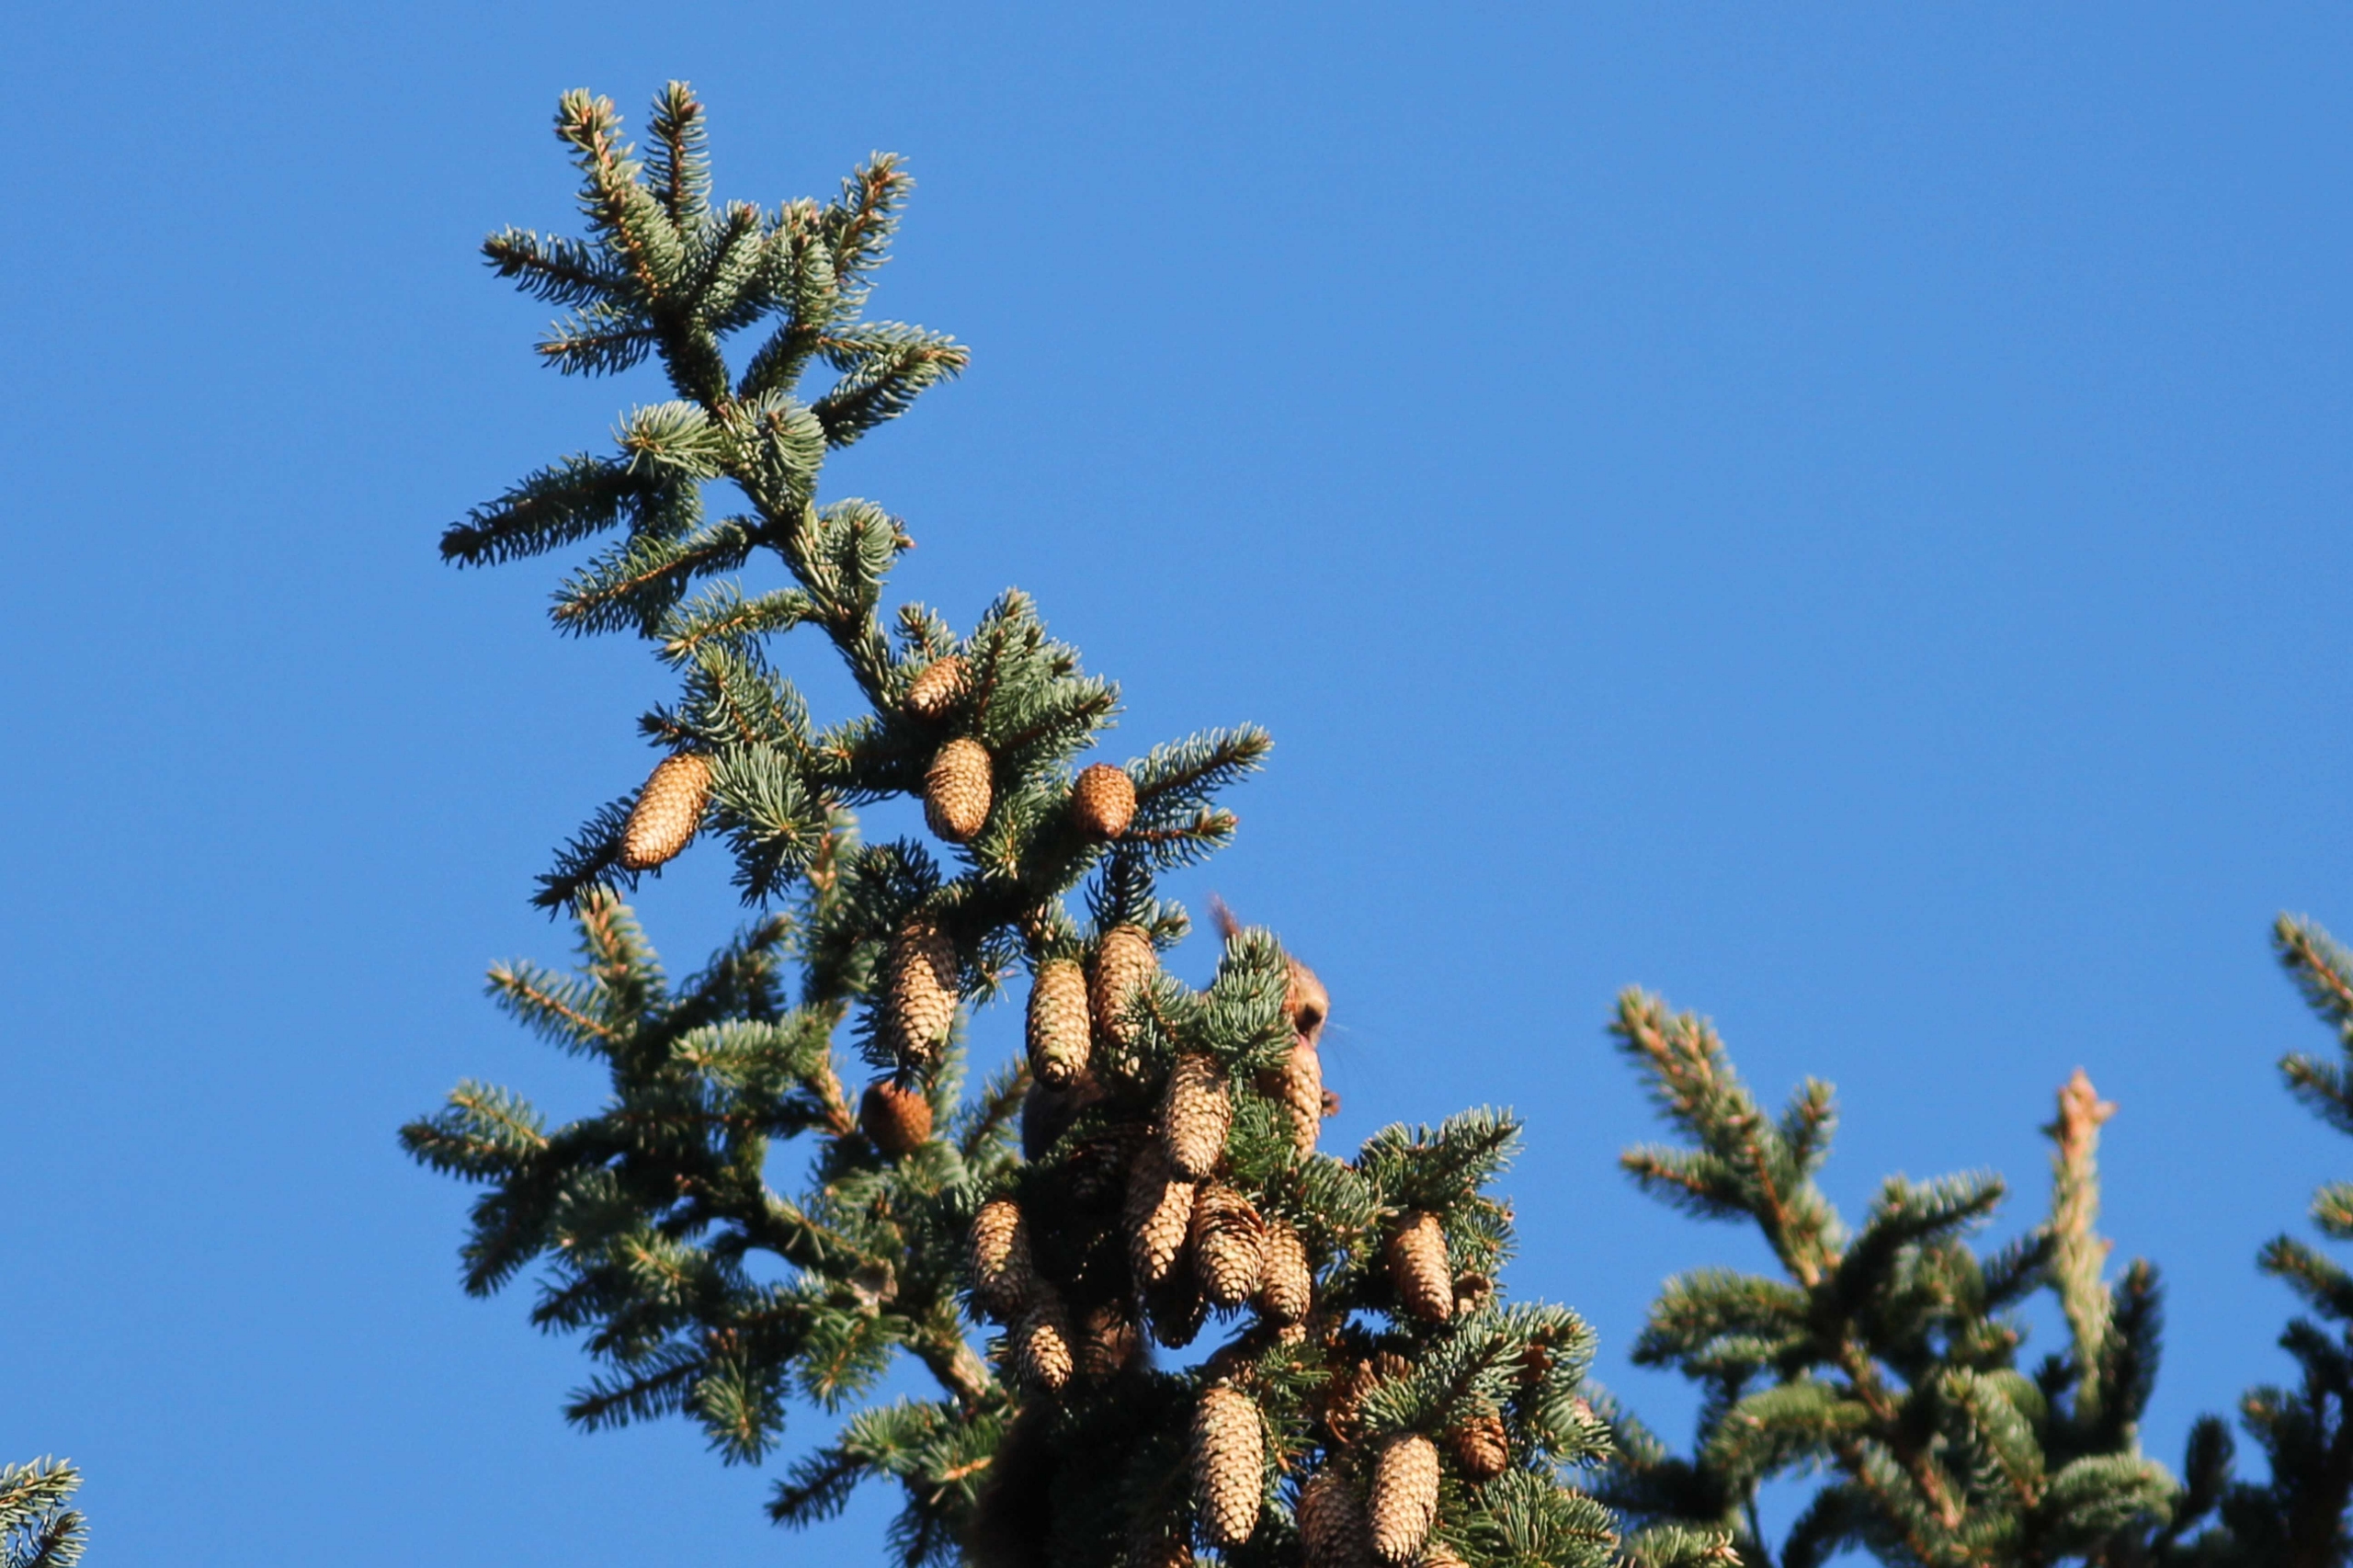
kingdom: Animalia
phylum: Chordata
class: Mammalia
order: Rodentia
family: Sciuridae
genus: Sciurus
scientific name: Sciurus vulgaris
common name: Egern
